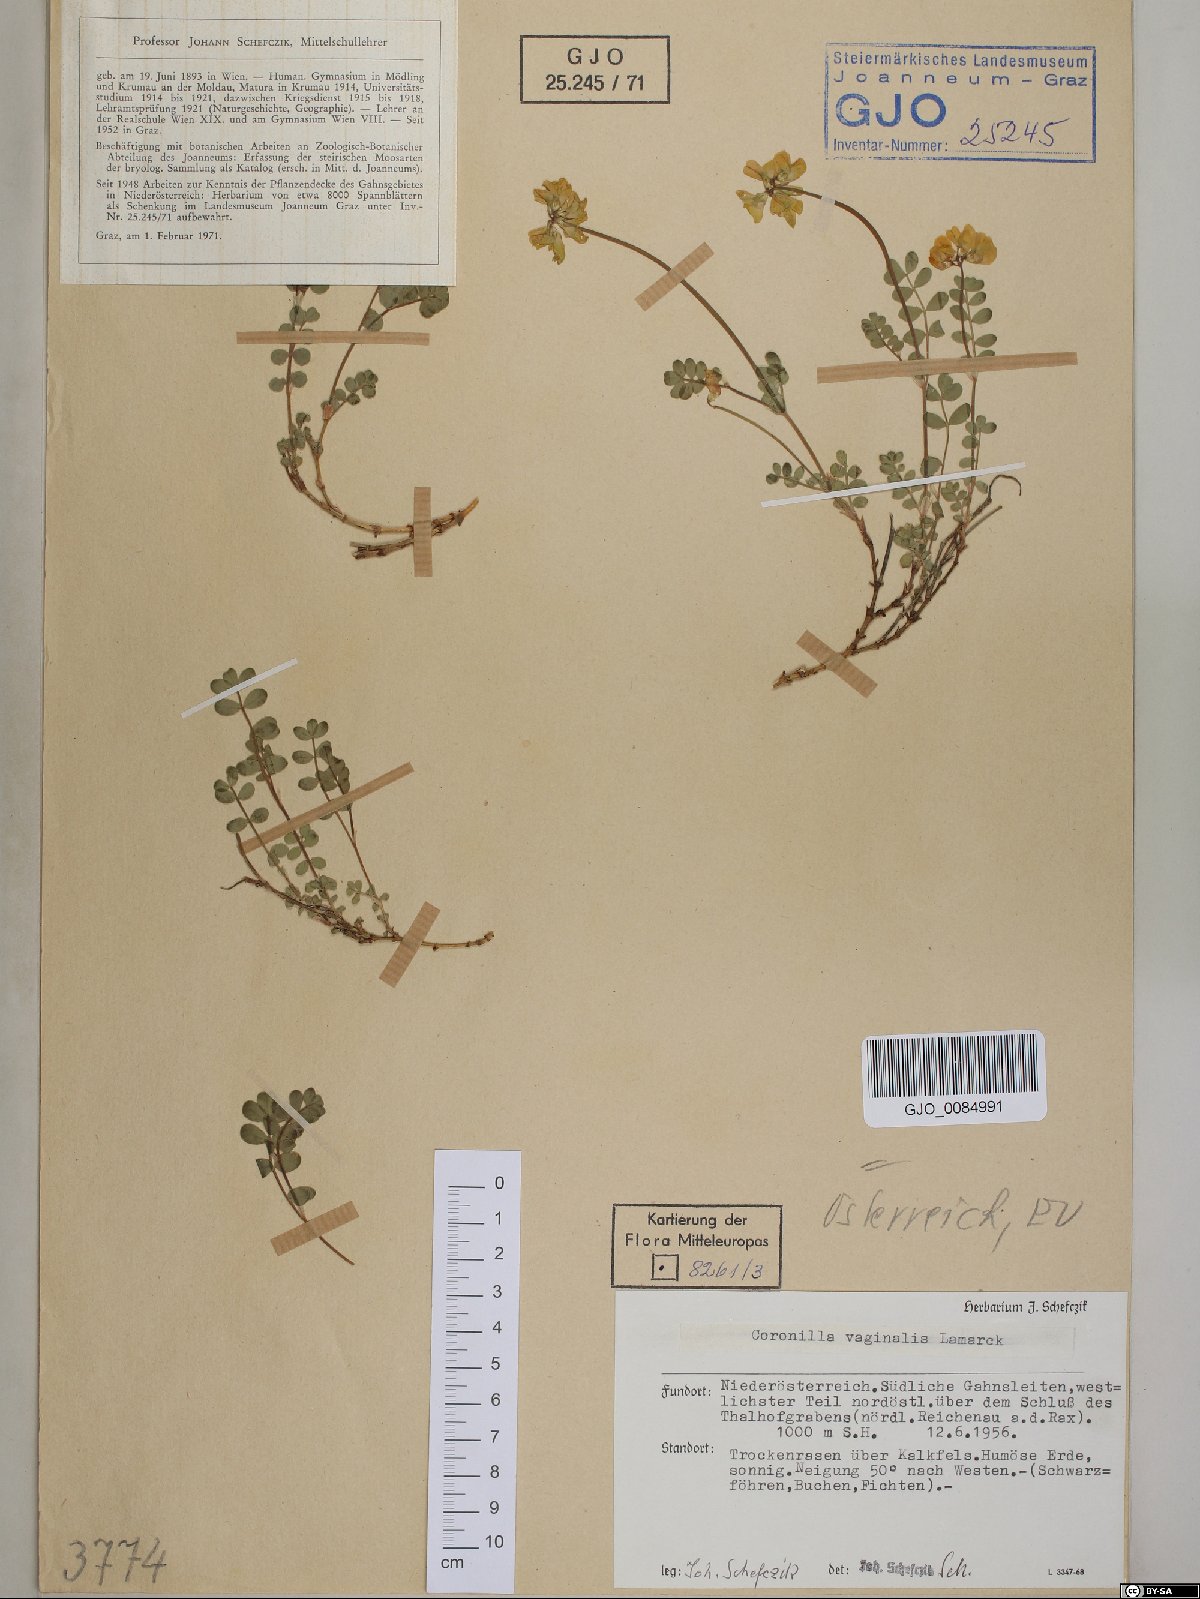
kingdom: Plantae
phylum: Tracheophyta
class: Magnoliopsida
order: Fabales
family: Fabaceae
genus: Coronilla
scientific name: Coronilla vaginalis
